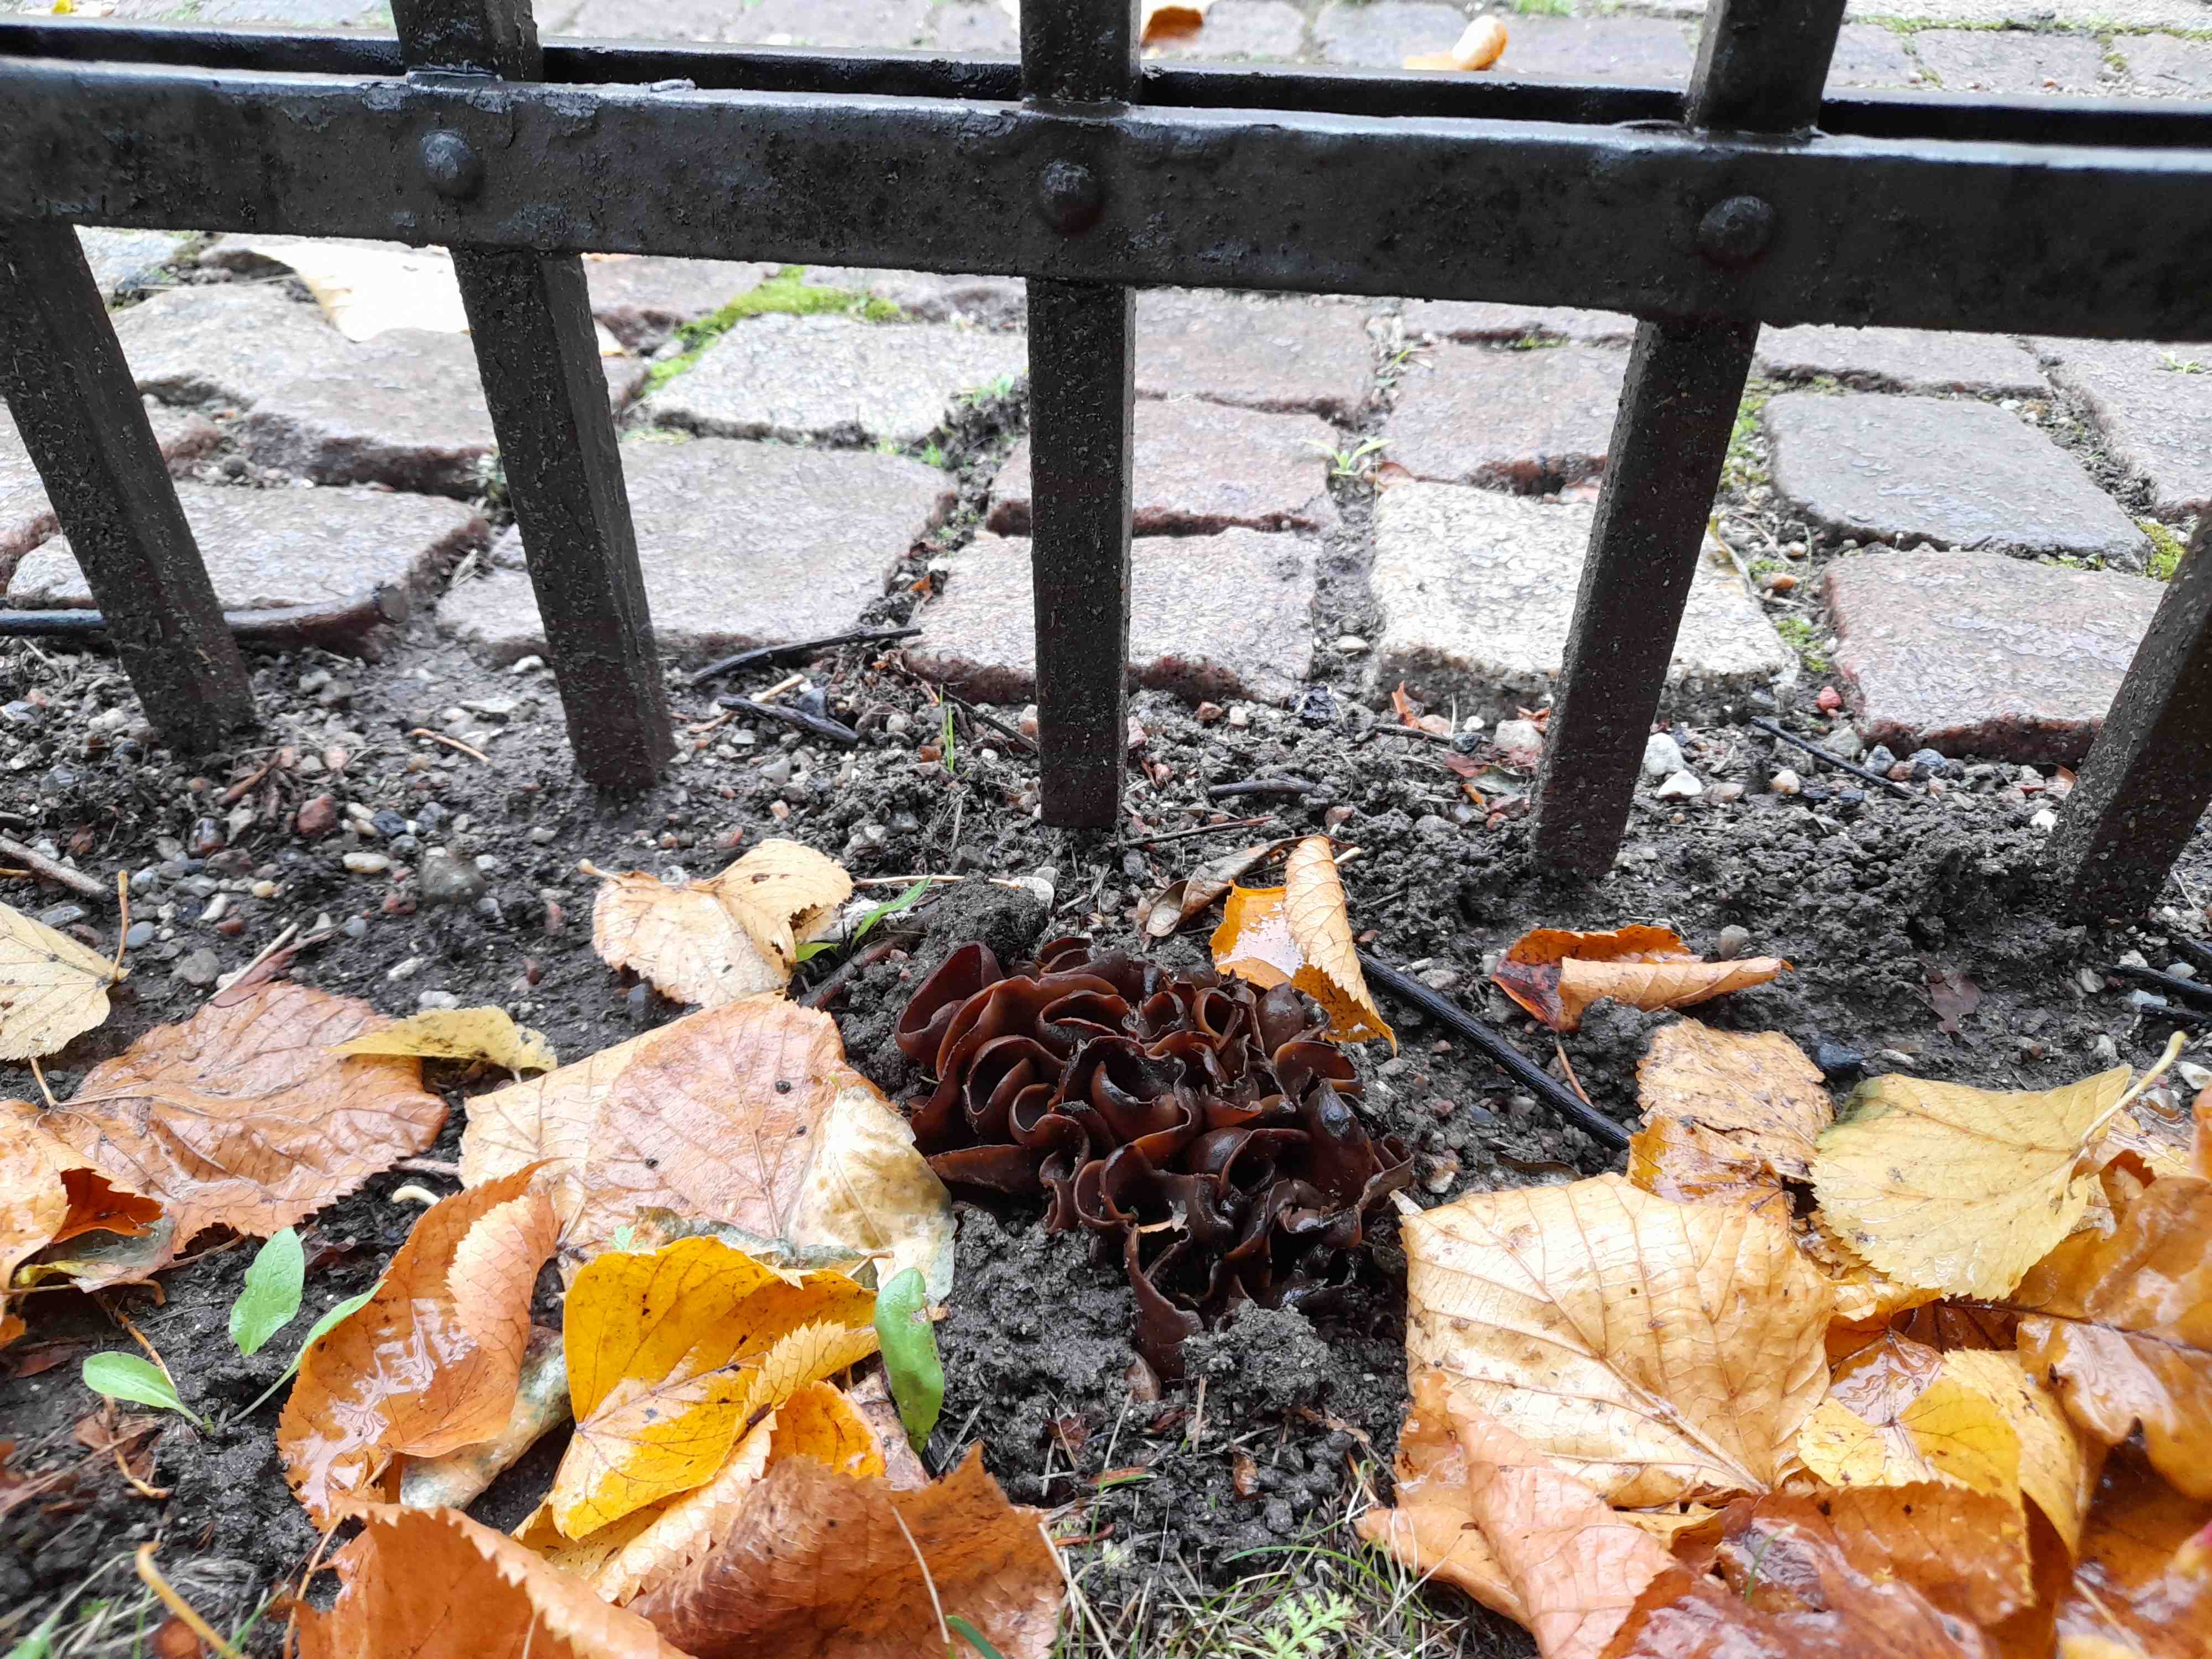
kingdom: Fungi
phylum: Ascomycota
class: Pezizomycetes
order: Pezizales
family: Otideaceae
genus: Otidea
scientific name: Otidea bufonia
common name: brun ørebæger
